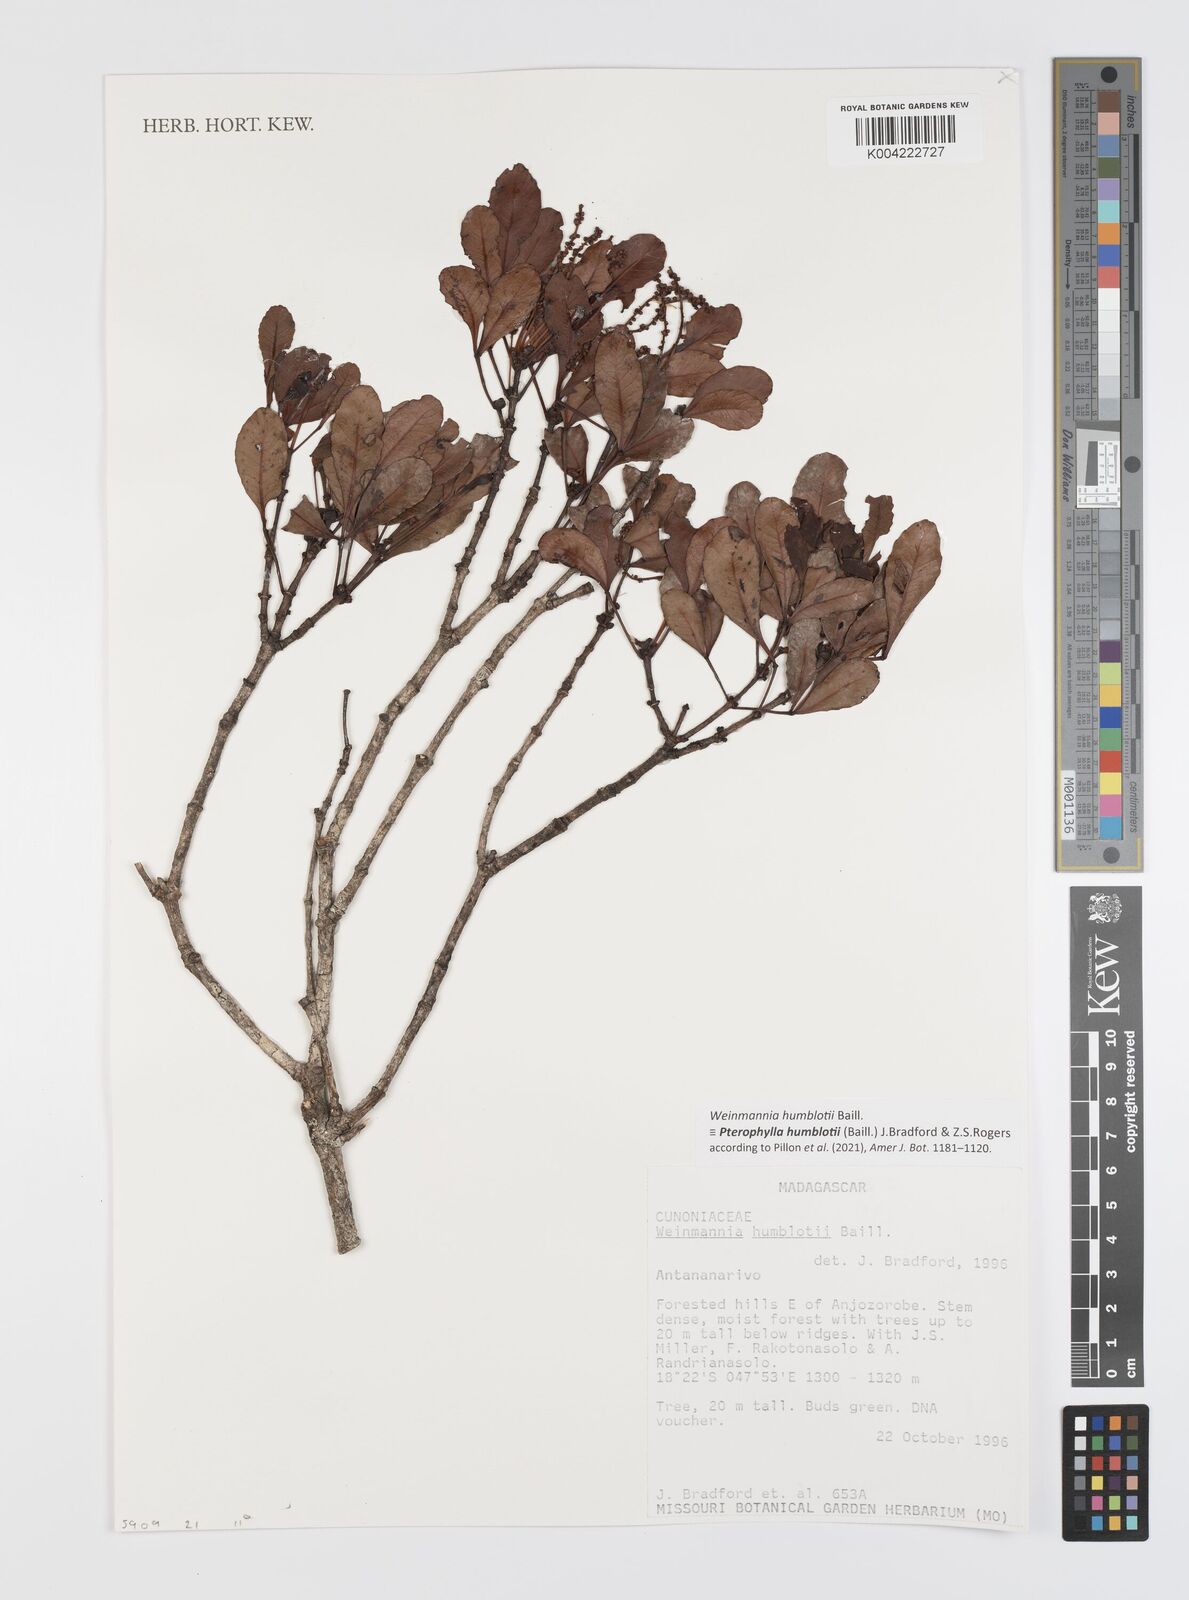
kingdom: Plantae
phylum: Tracheophyta
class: Magnoliopsida
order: Oxalidales
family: Cunoniaceae
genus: Pterophylla
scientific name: Pterophylla
